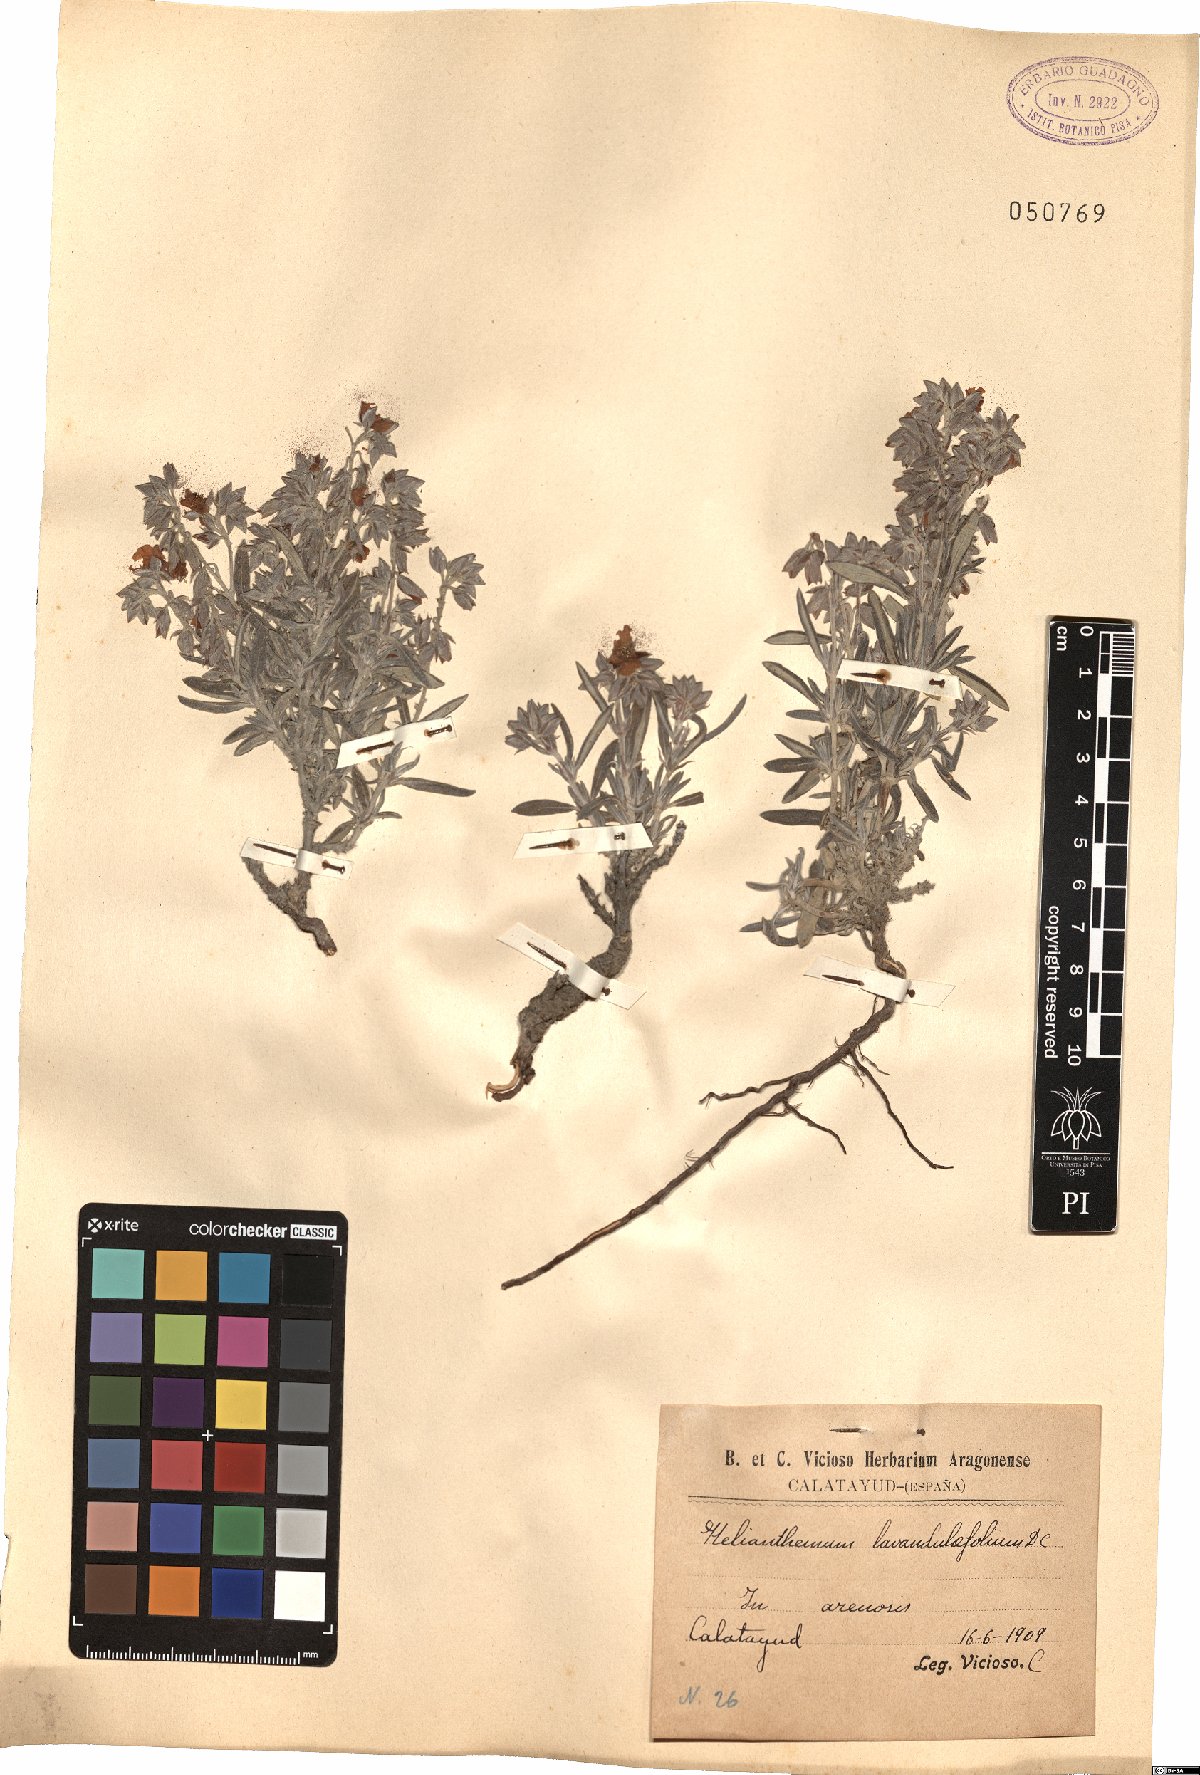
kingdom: Plantae
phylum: Tracheophyta
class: Magnoliopsida
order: Malvales
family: Cistaceae
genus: Helianthemum
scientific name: Helianthemum syriacum
